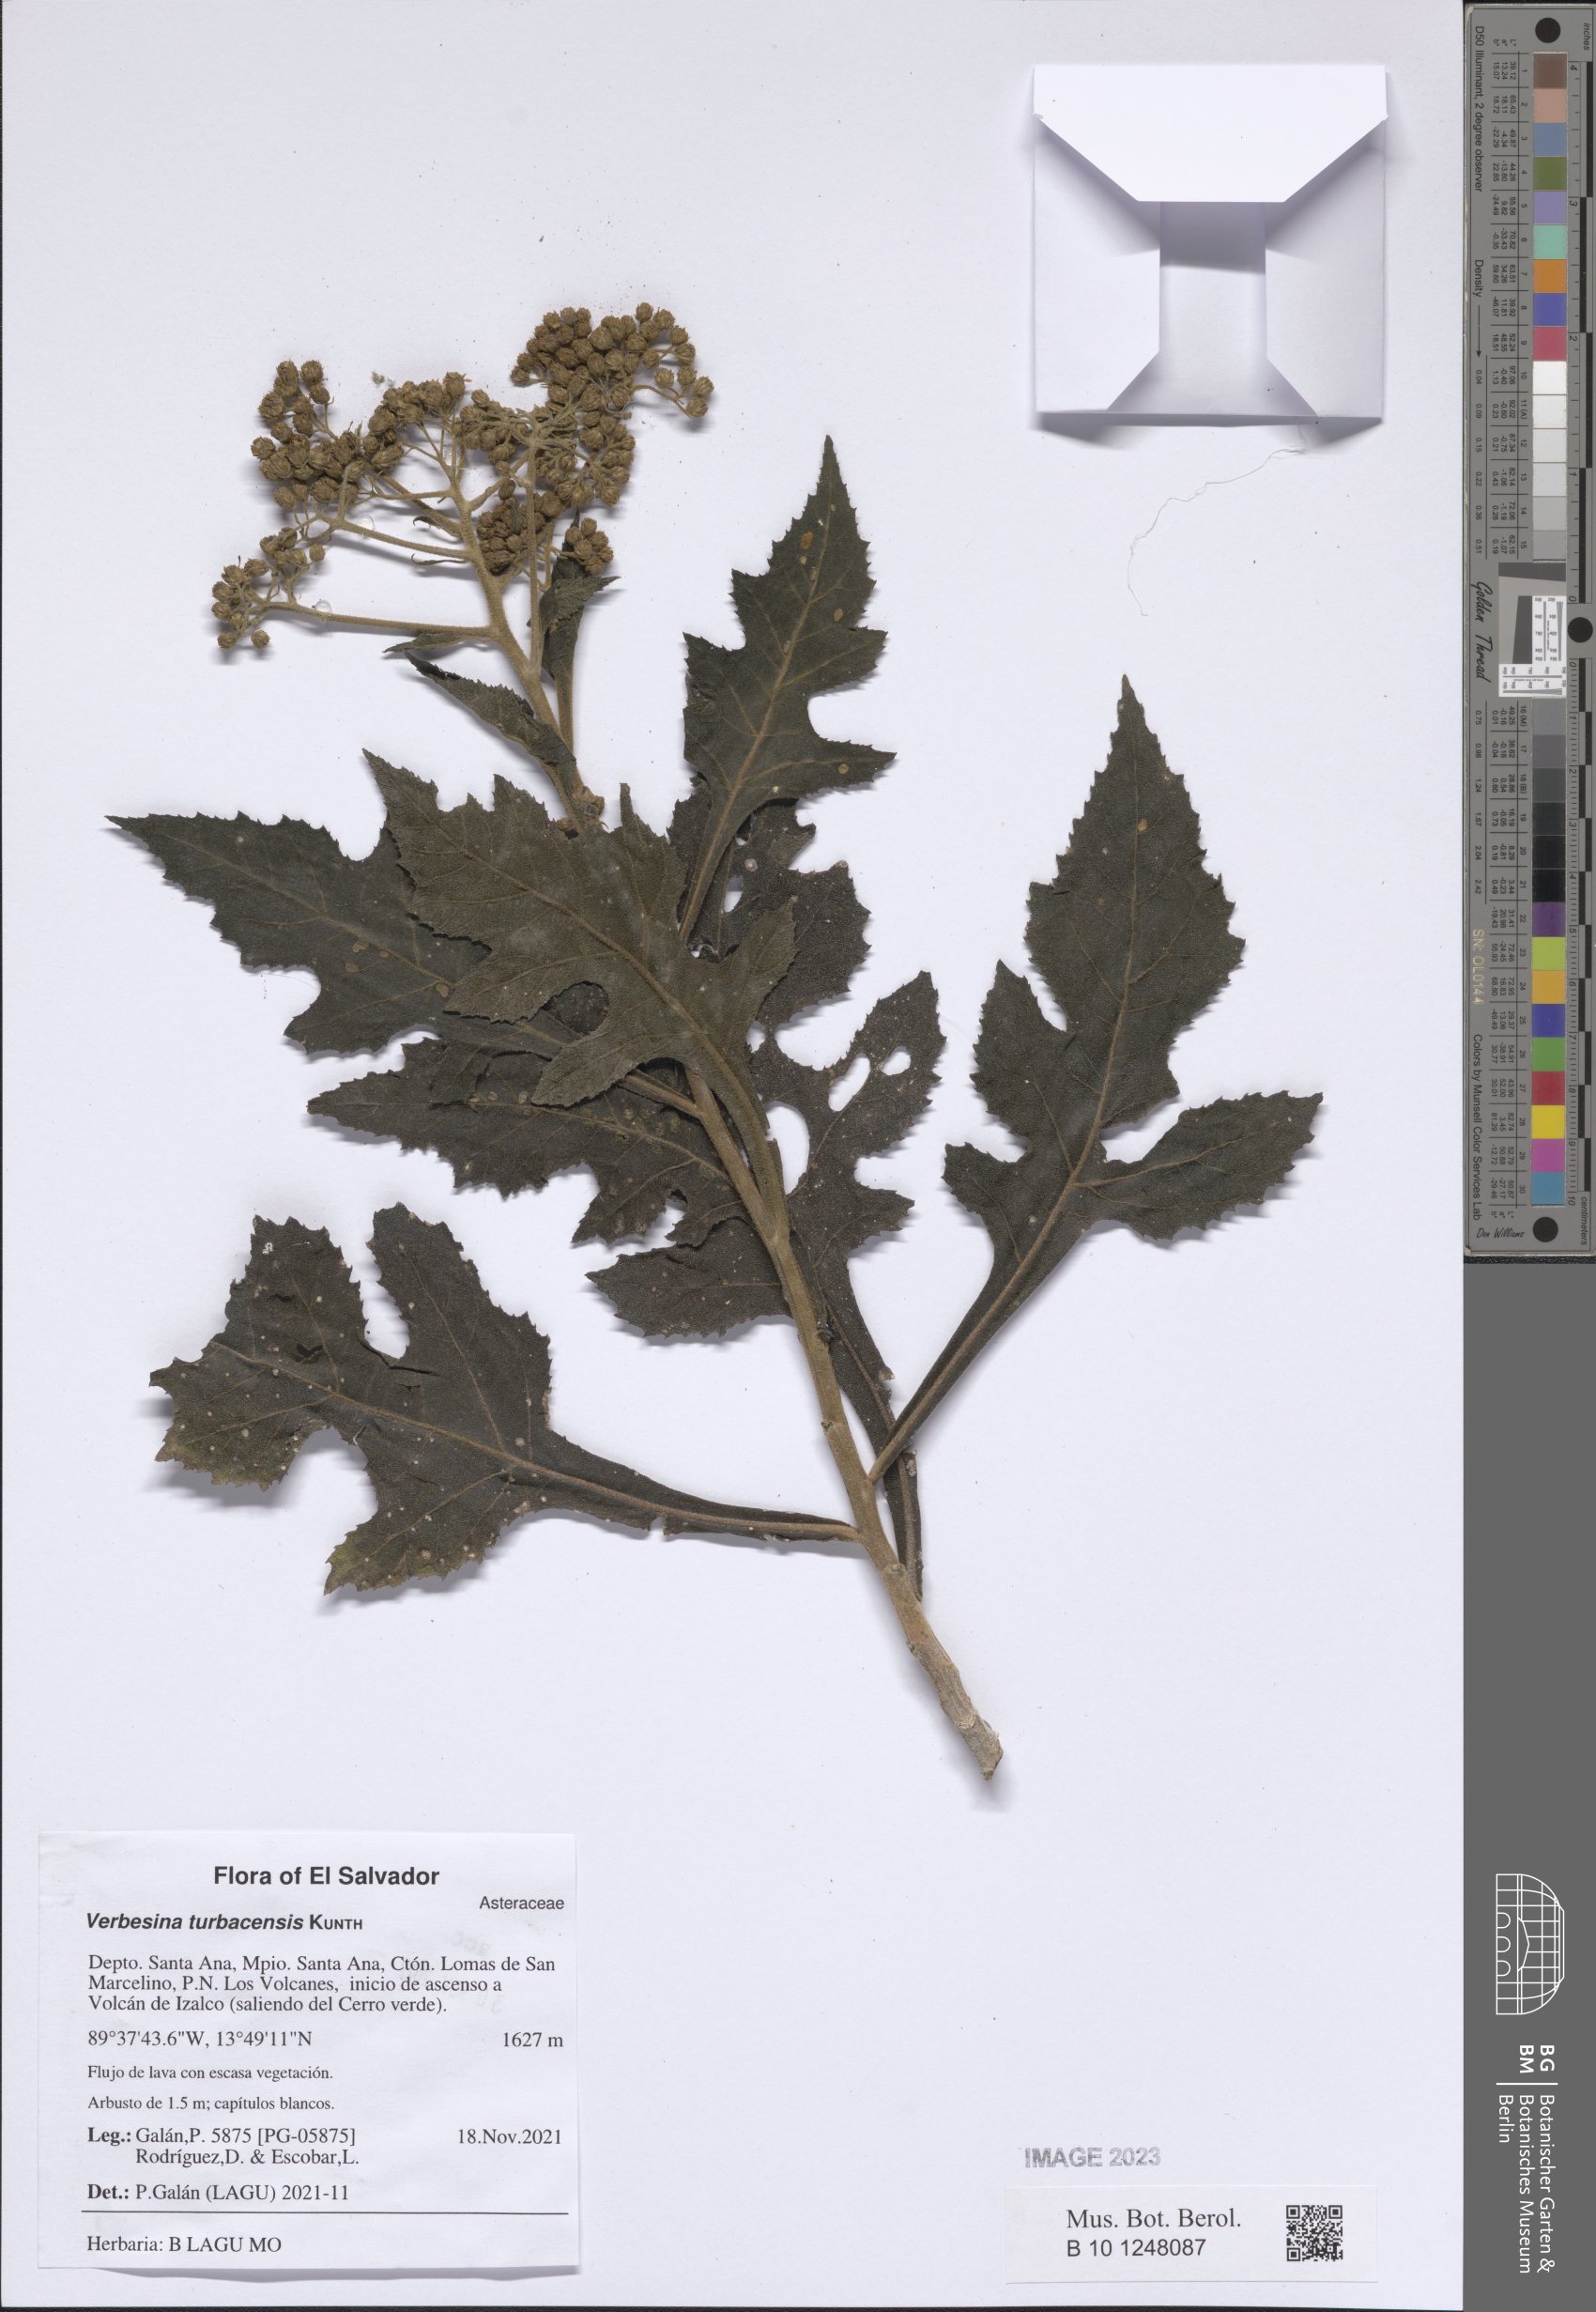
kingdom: Plantae
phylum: Tracheophyta
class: Magnoliopsida
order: Asterales
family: Asteraceae
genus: Verbesina
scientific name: Verbesina turbacensis
